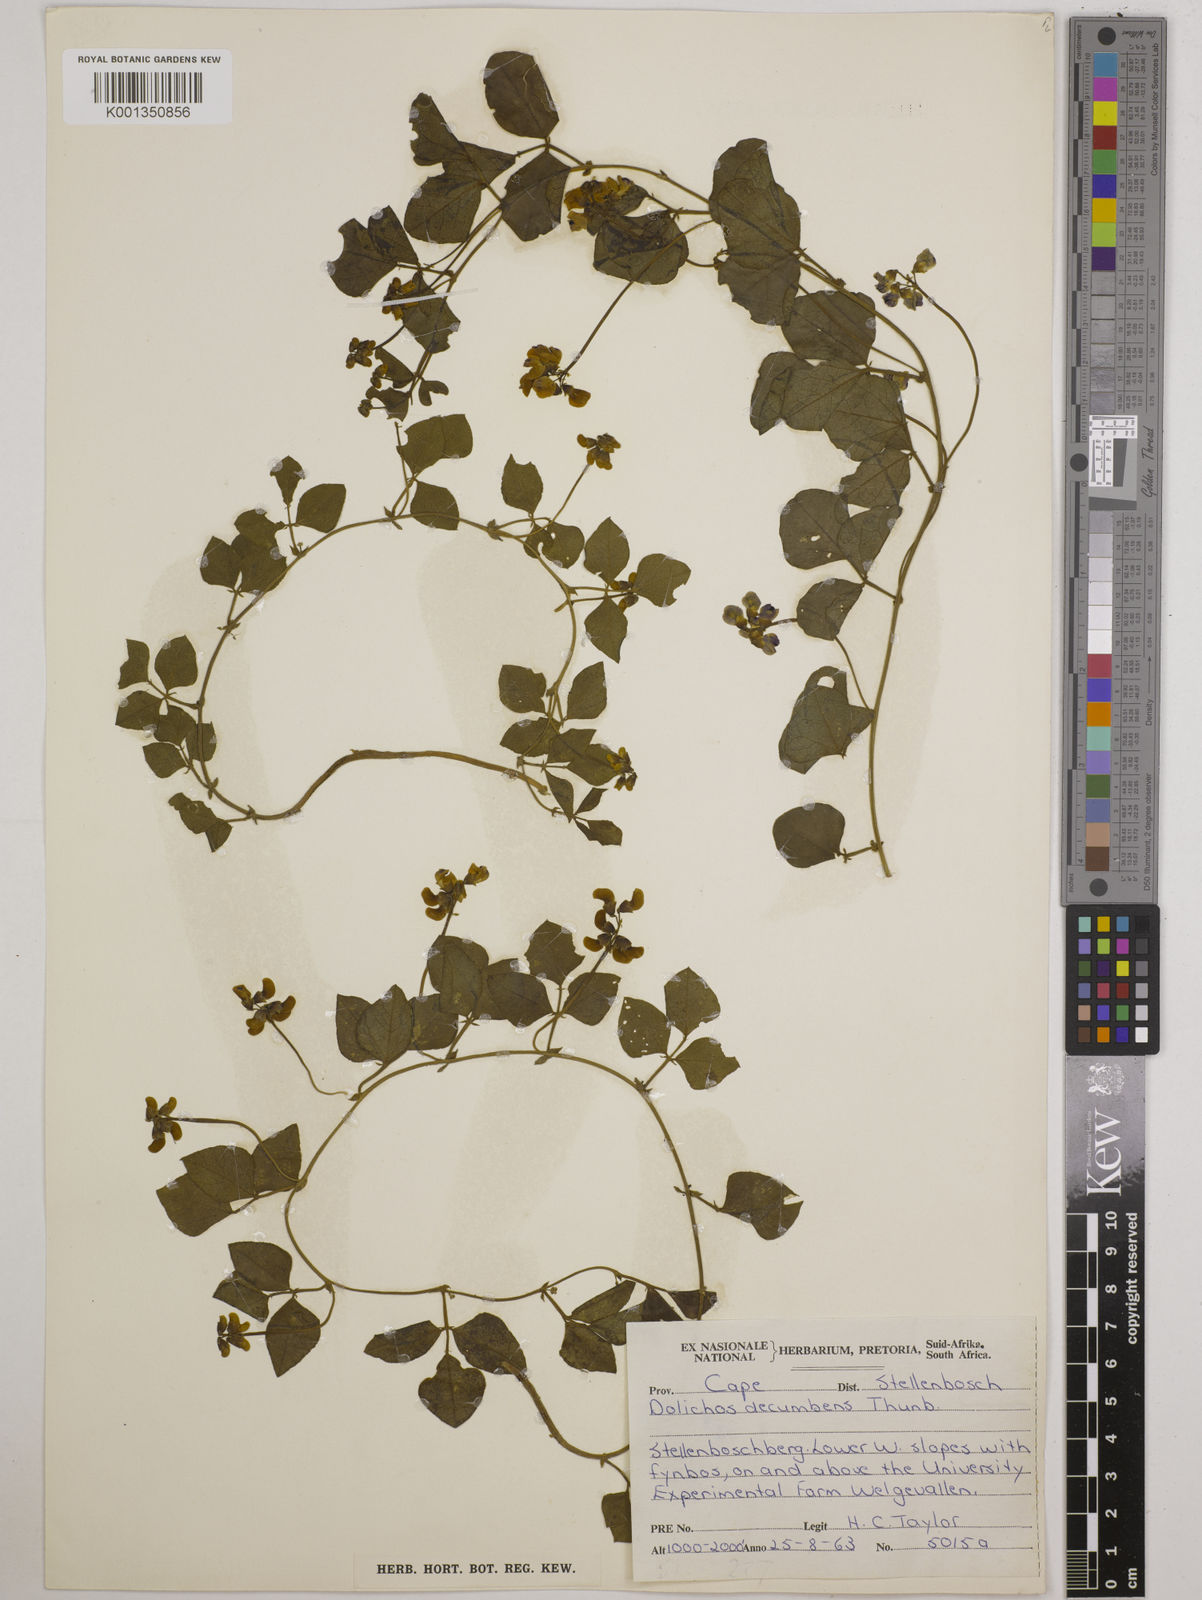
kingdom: Plantae
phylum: Tracheophyta
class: Magnoliopsida
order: Fabales
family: Fabaceae
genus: Dolichos
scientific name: Dolichos decumbens
